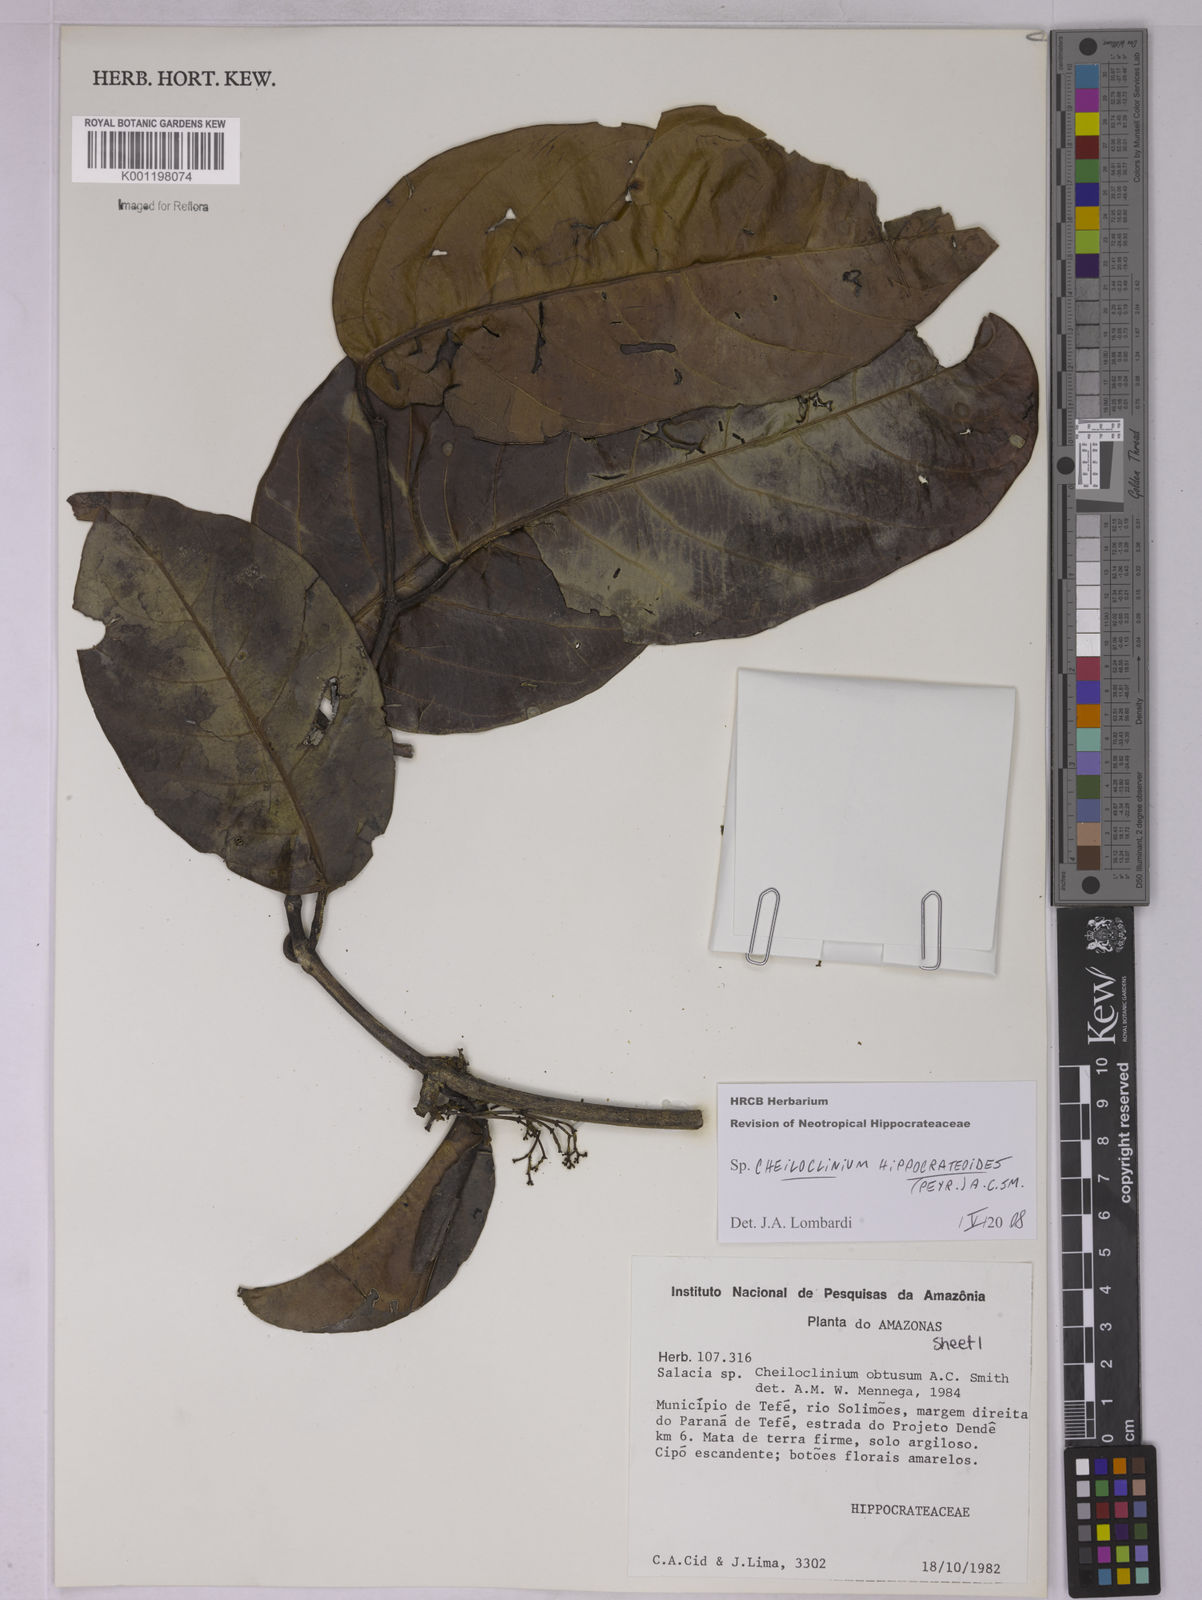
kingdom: Plantae
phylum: Tracheophyta
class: Magnoliopsida
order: Celastrales
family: Celastraceae
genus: Cheiloclinium
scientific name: Cheiloclinium hippocrateoides
